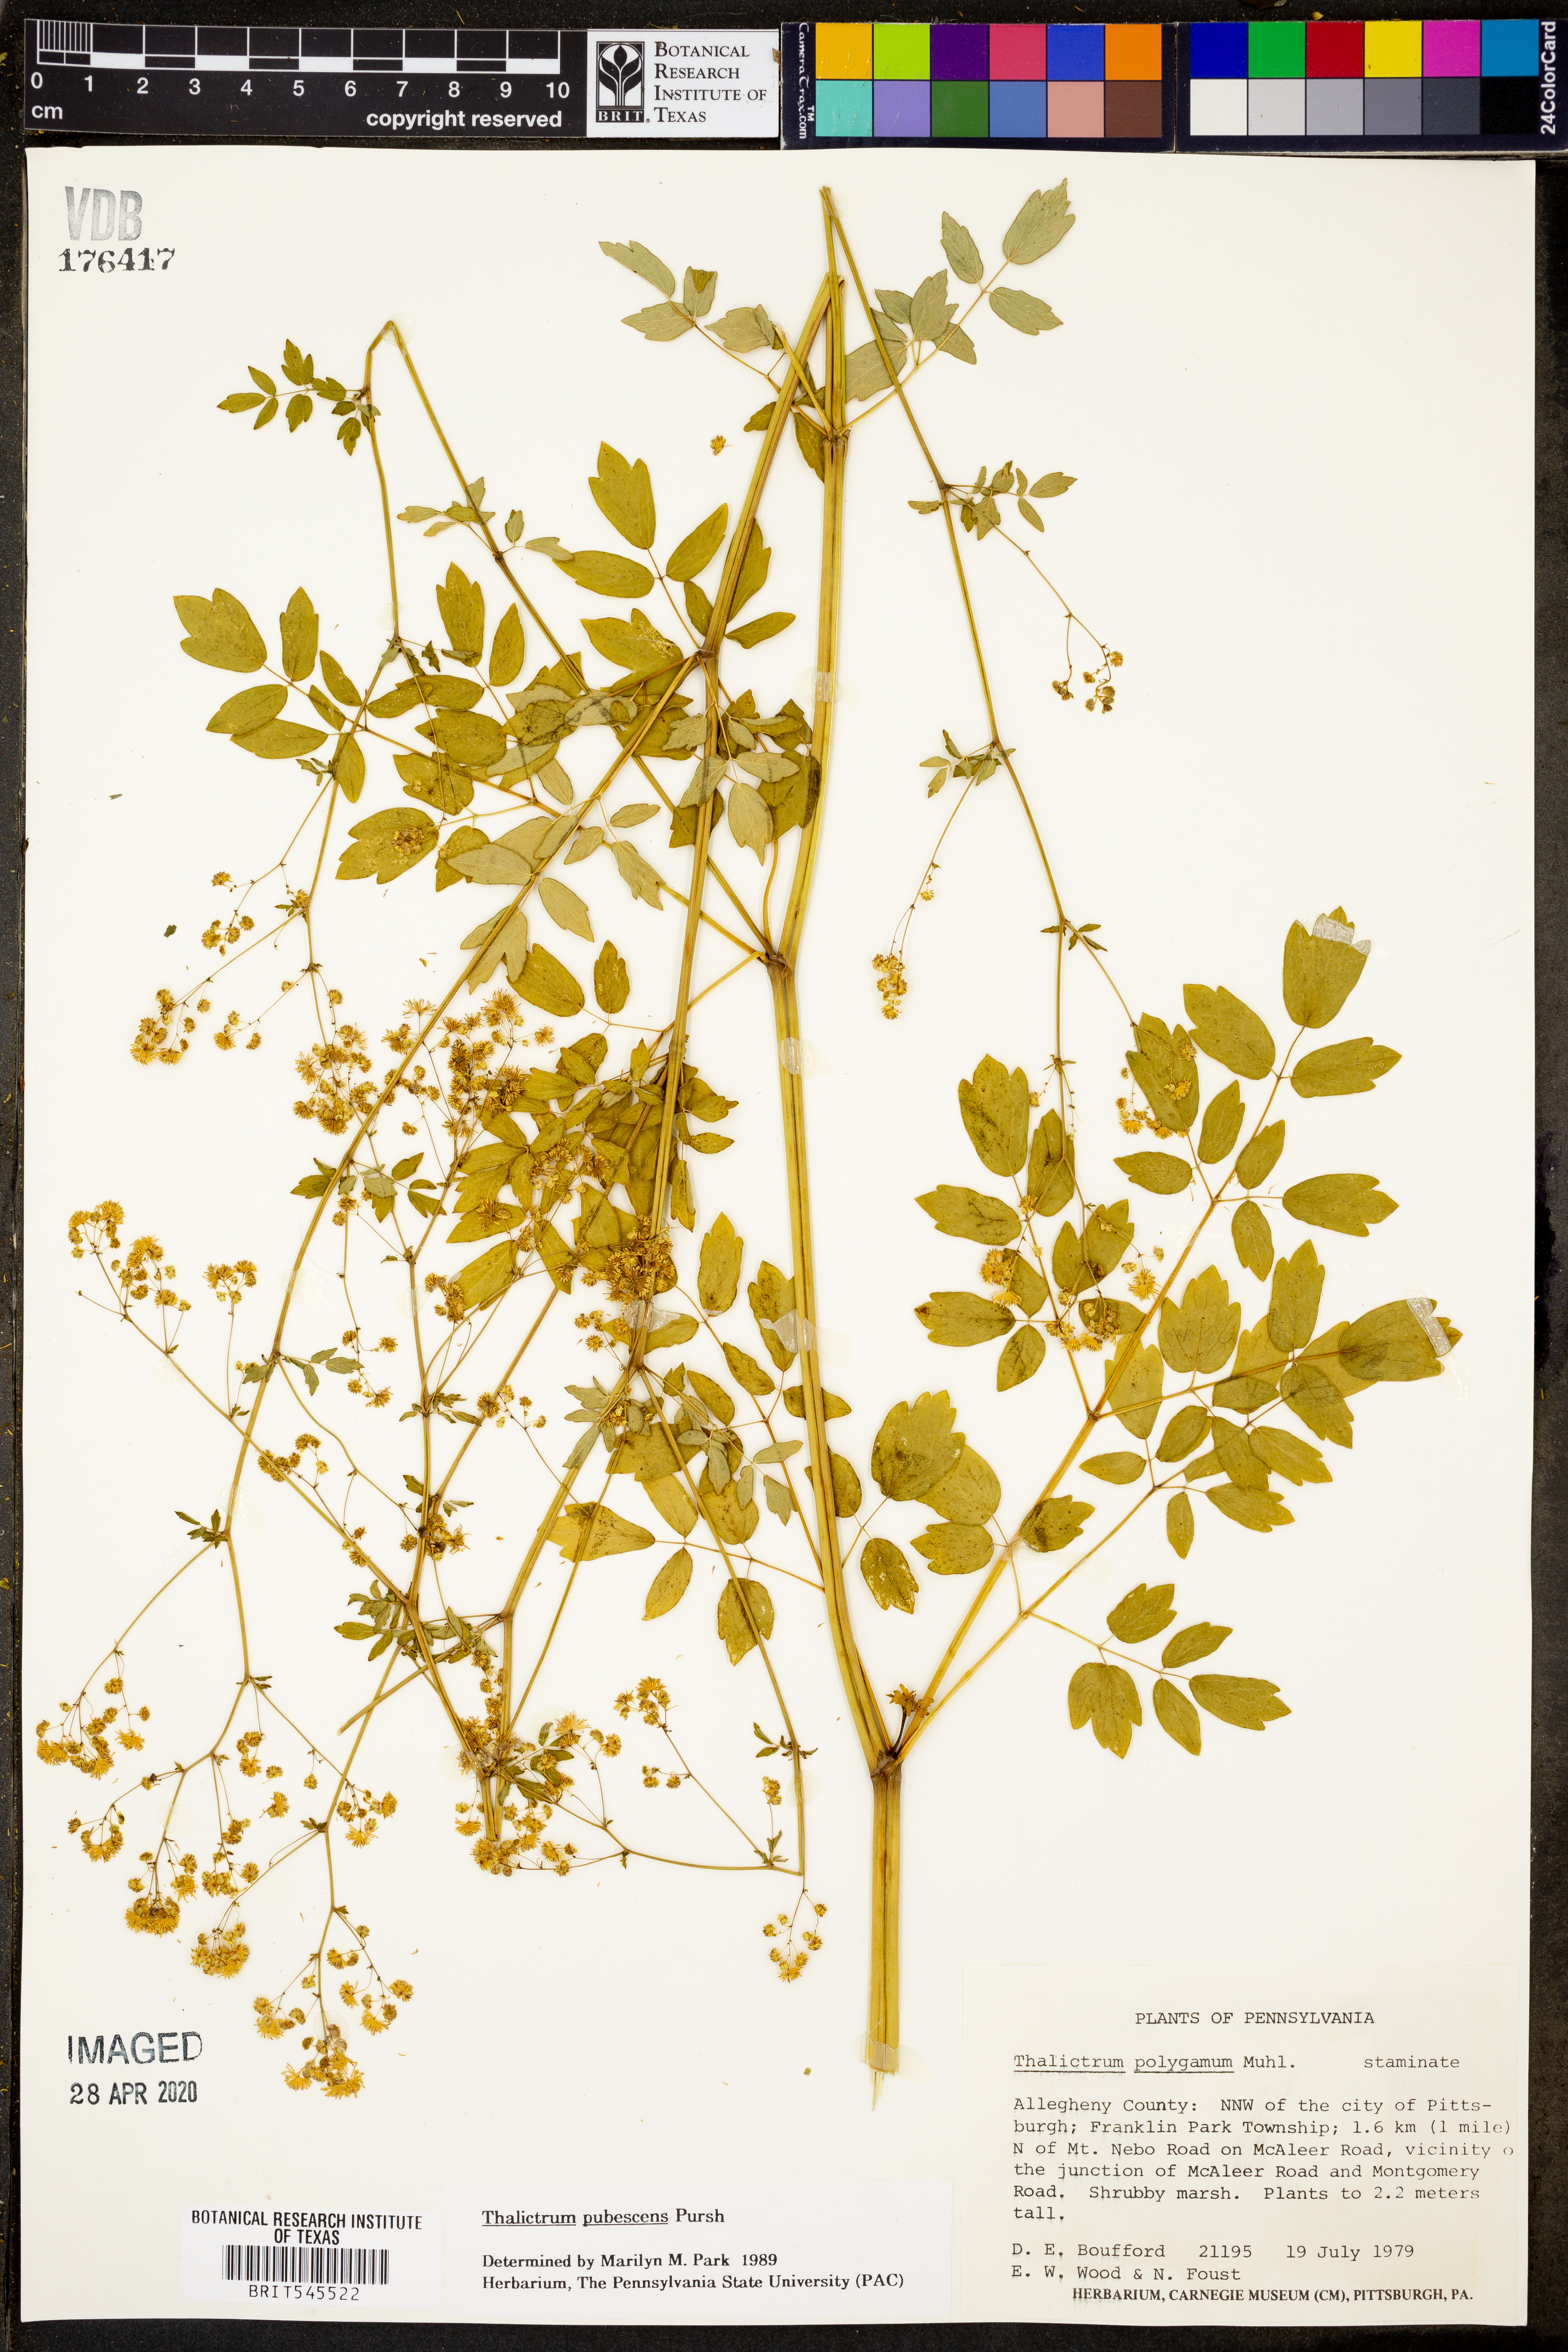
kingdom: Plantae
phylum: Tracheophyta
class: Magnoliopsida
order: Ranunculales
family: Ranunculaceae
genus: Thalictrum
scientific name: Thalictrum pubescens
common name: King-of-the-meadow
